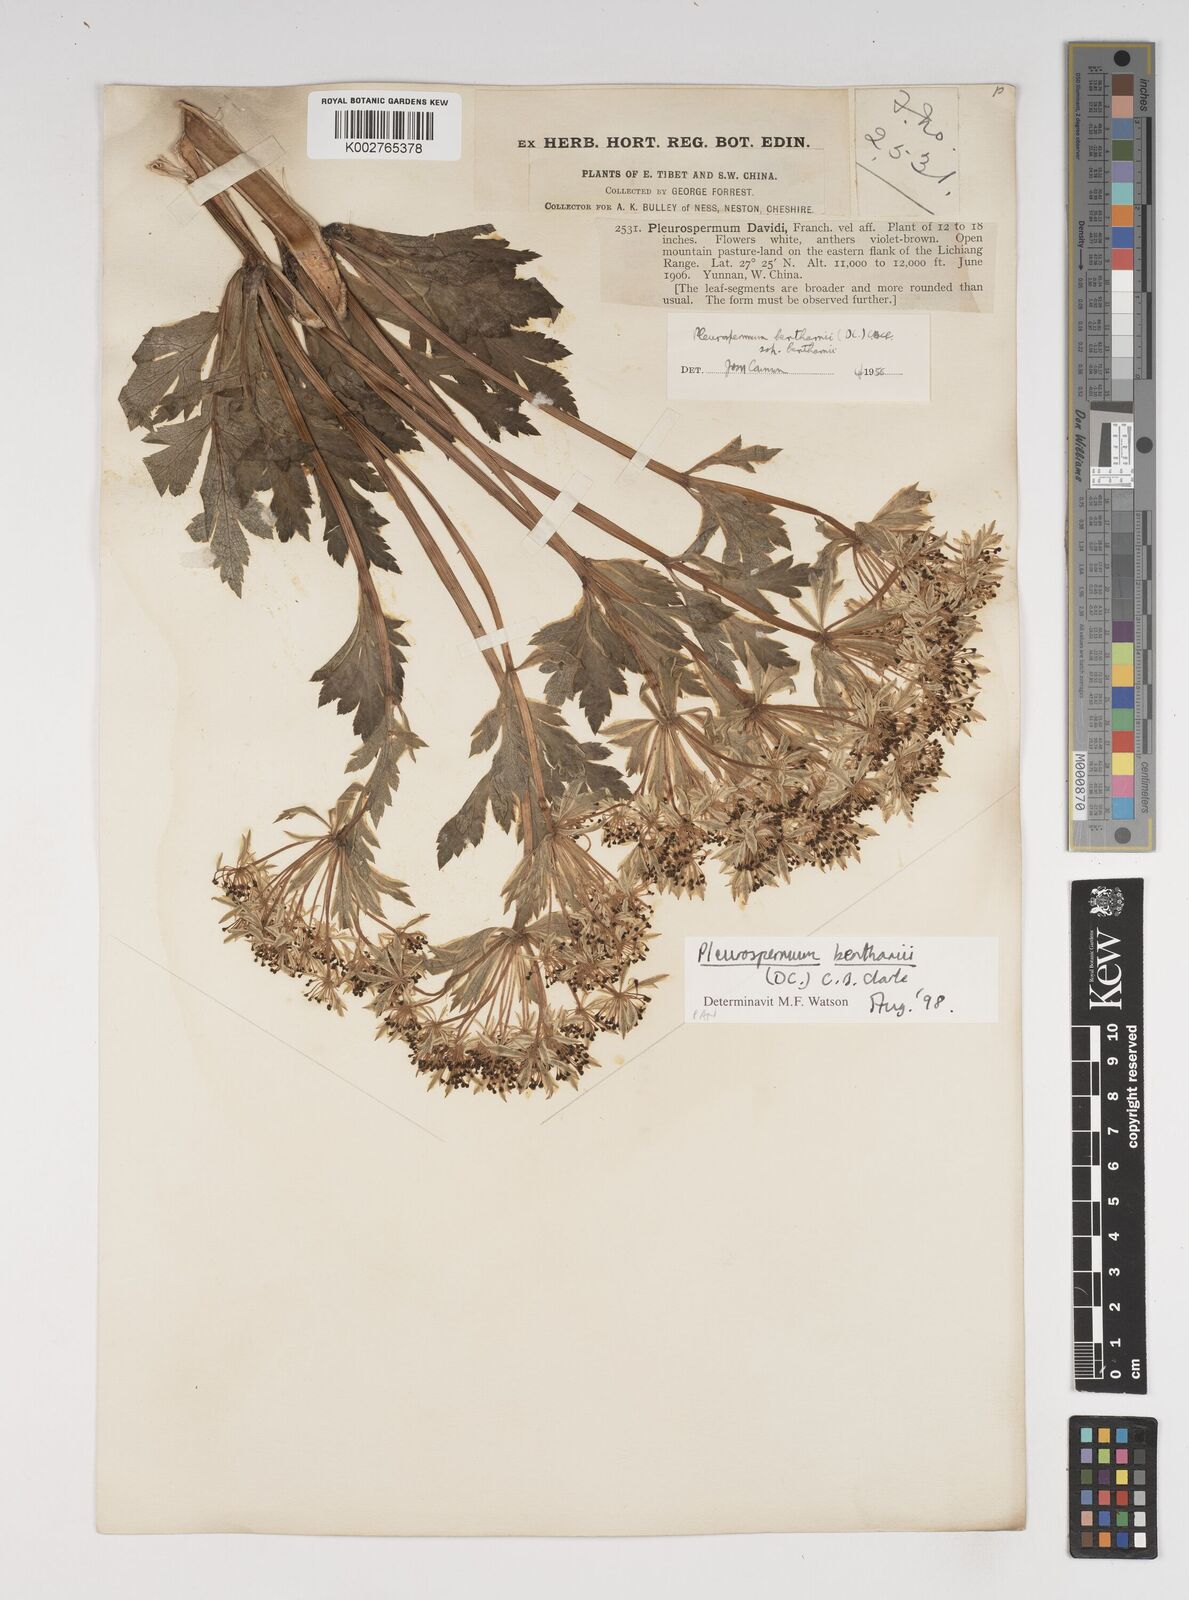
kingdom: Plantae
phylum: Tracheophyta
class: Magnoliopsida
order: Apiales
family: Apiaceae
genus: Hymenidium
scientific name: Hymenidium benthamii
